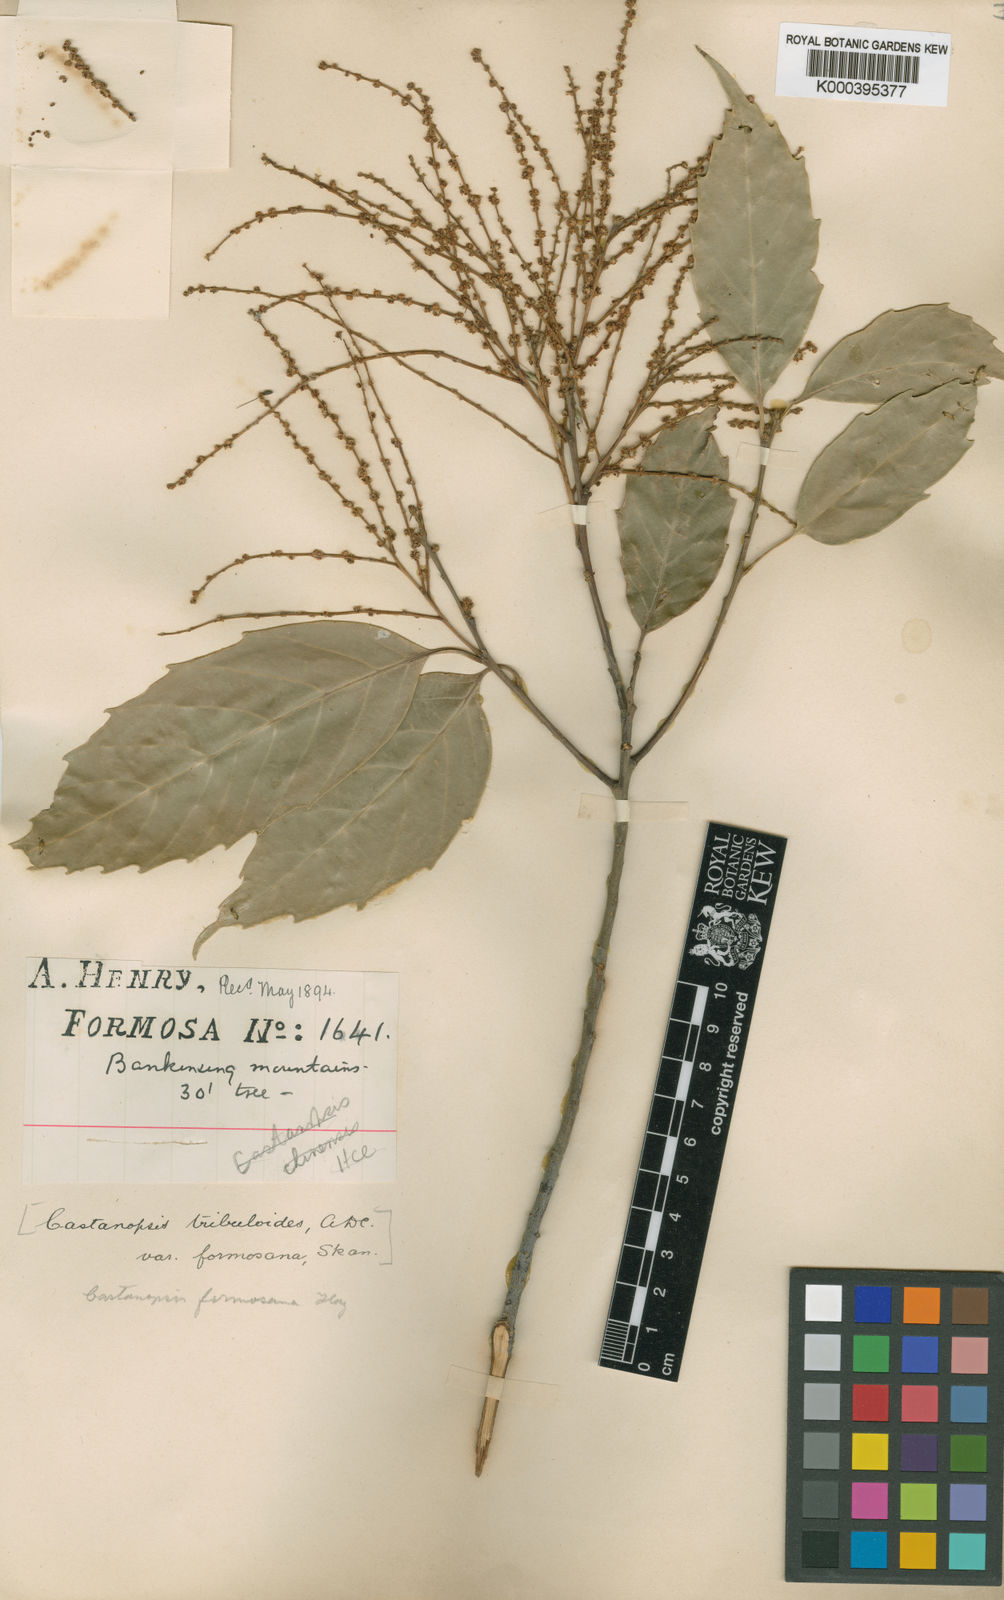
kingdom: Plantae
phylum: Tracheophyta
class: Magnoliopsida
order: Fagales
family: Fagaceae
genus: Castanopsis
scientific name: Castanopsis formosana
